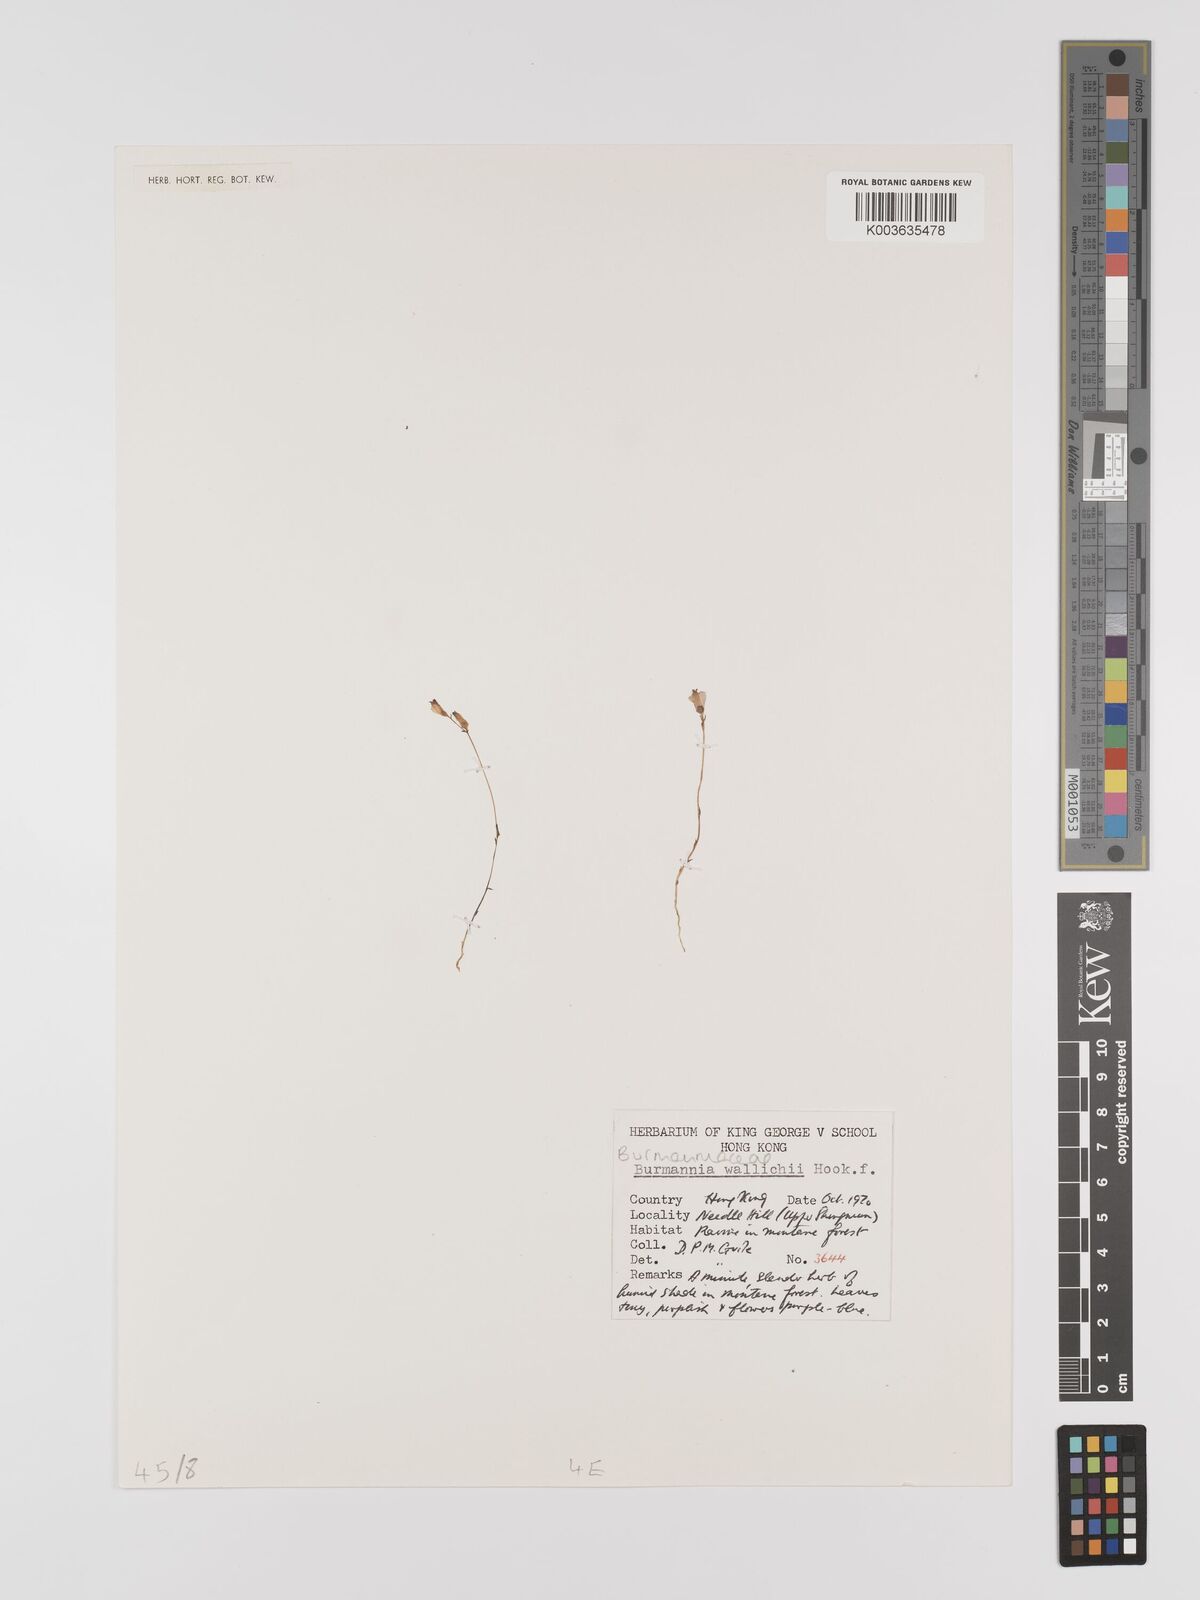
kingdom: Plantae
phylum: Tracheophyta
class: Liliopsida
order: Dioscoreales
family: Burmanniaceae
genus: Burmannia
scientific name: Burmannia wallichii
